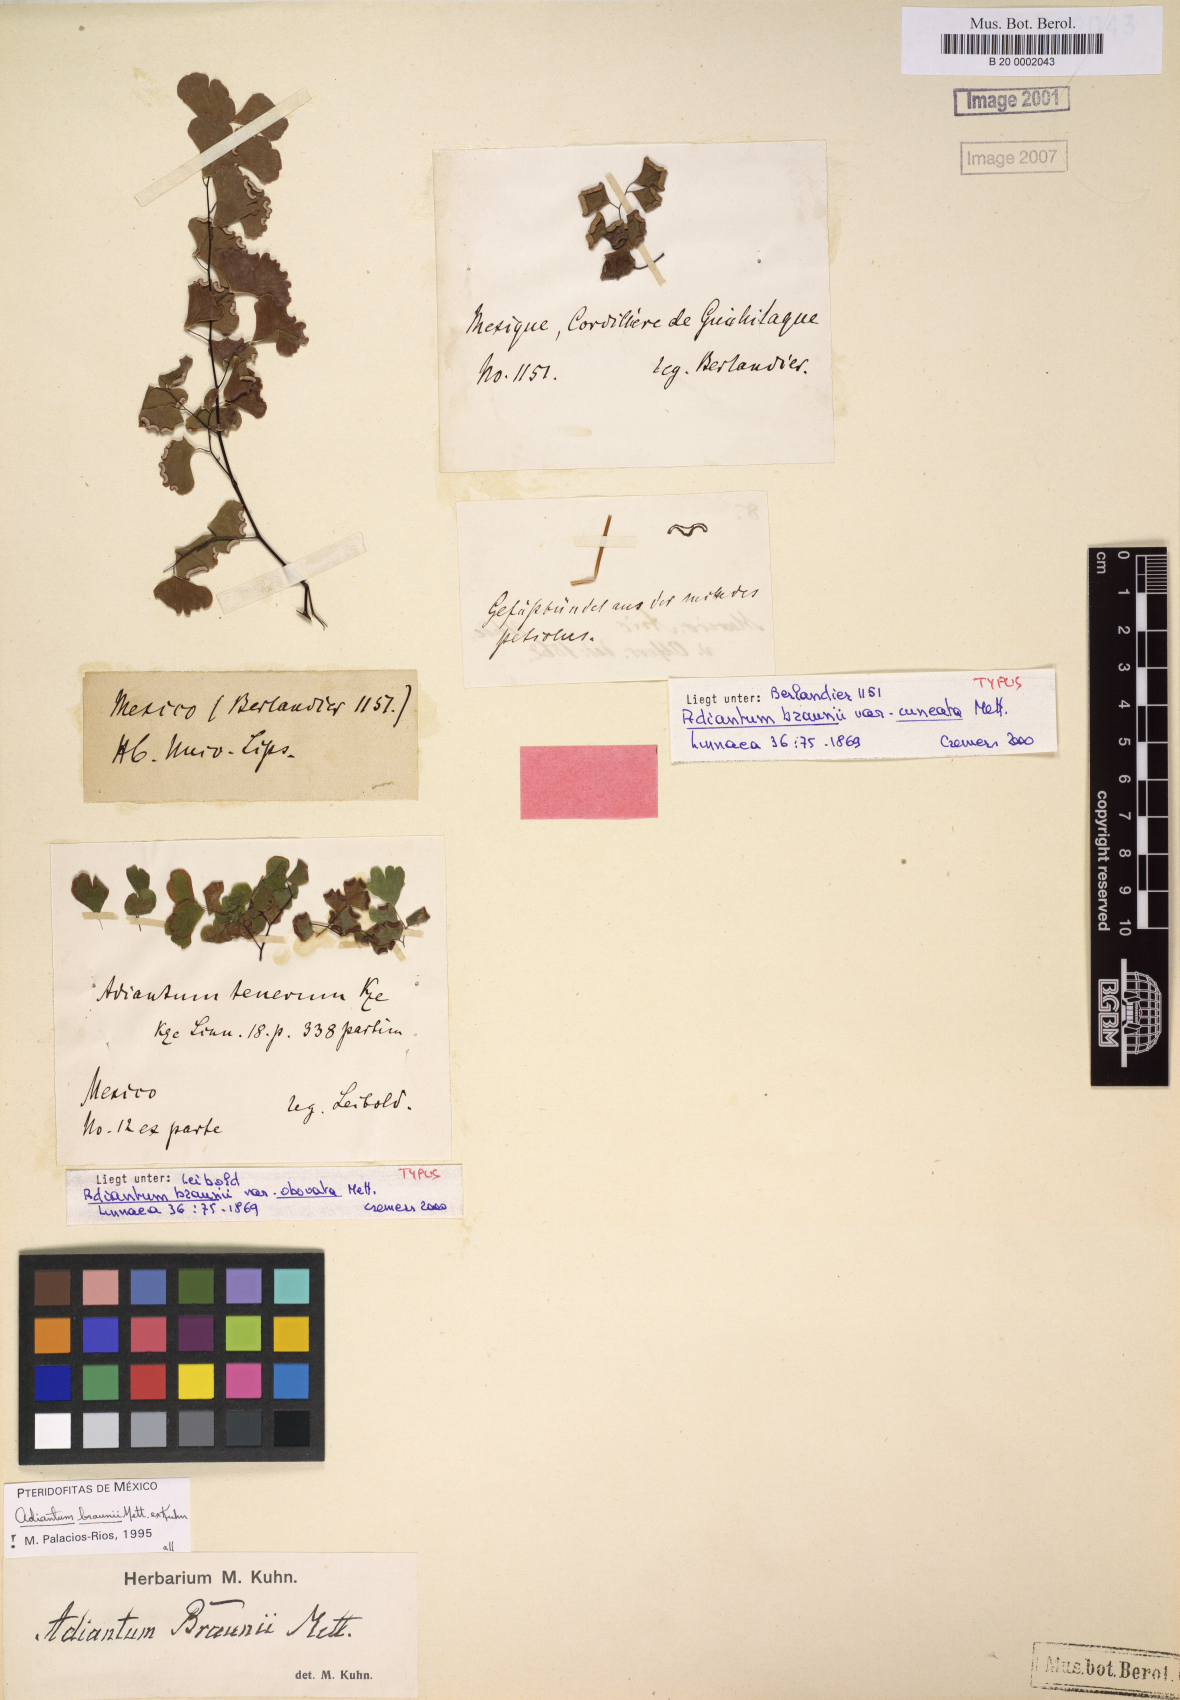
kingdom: Plantae
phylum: Tracheophyta
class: Polypodiopsida
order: Polypodiales
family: Pteridaceae
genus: Adiantum
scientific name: Adiantum braunii
